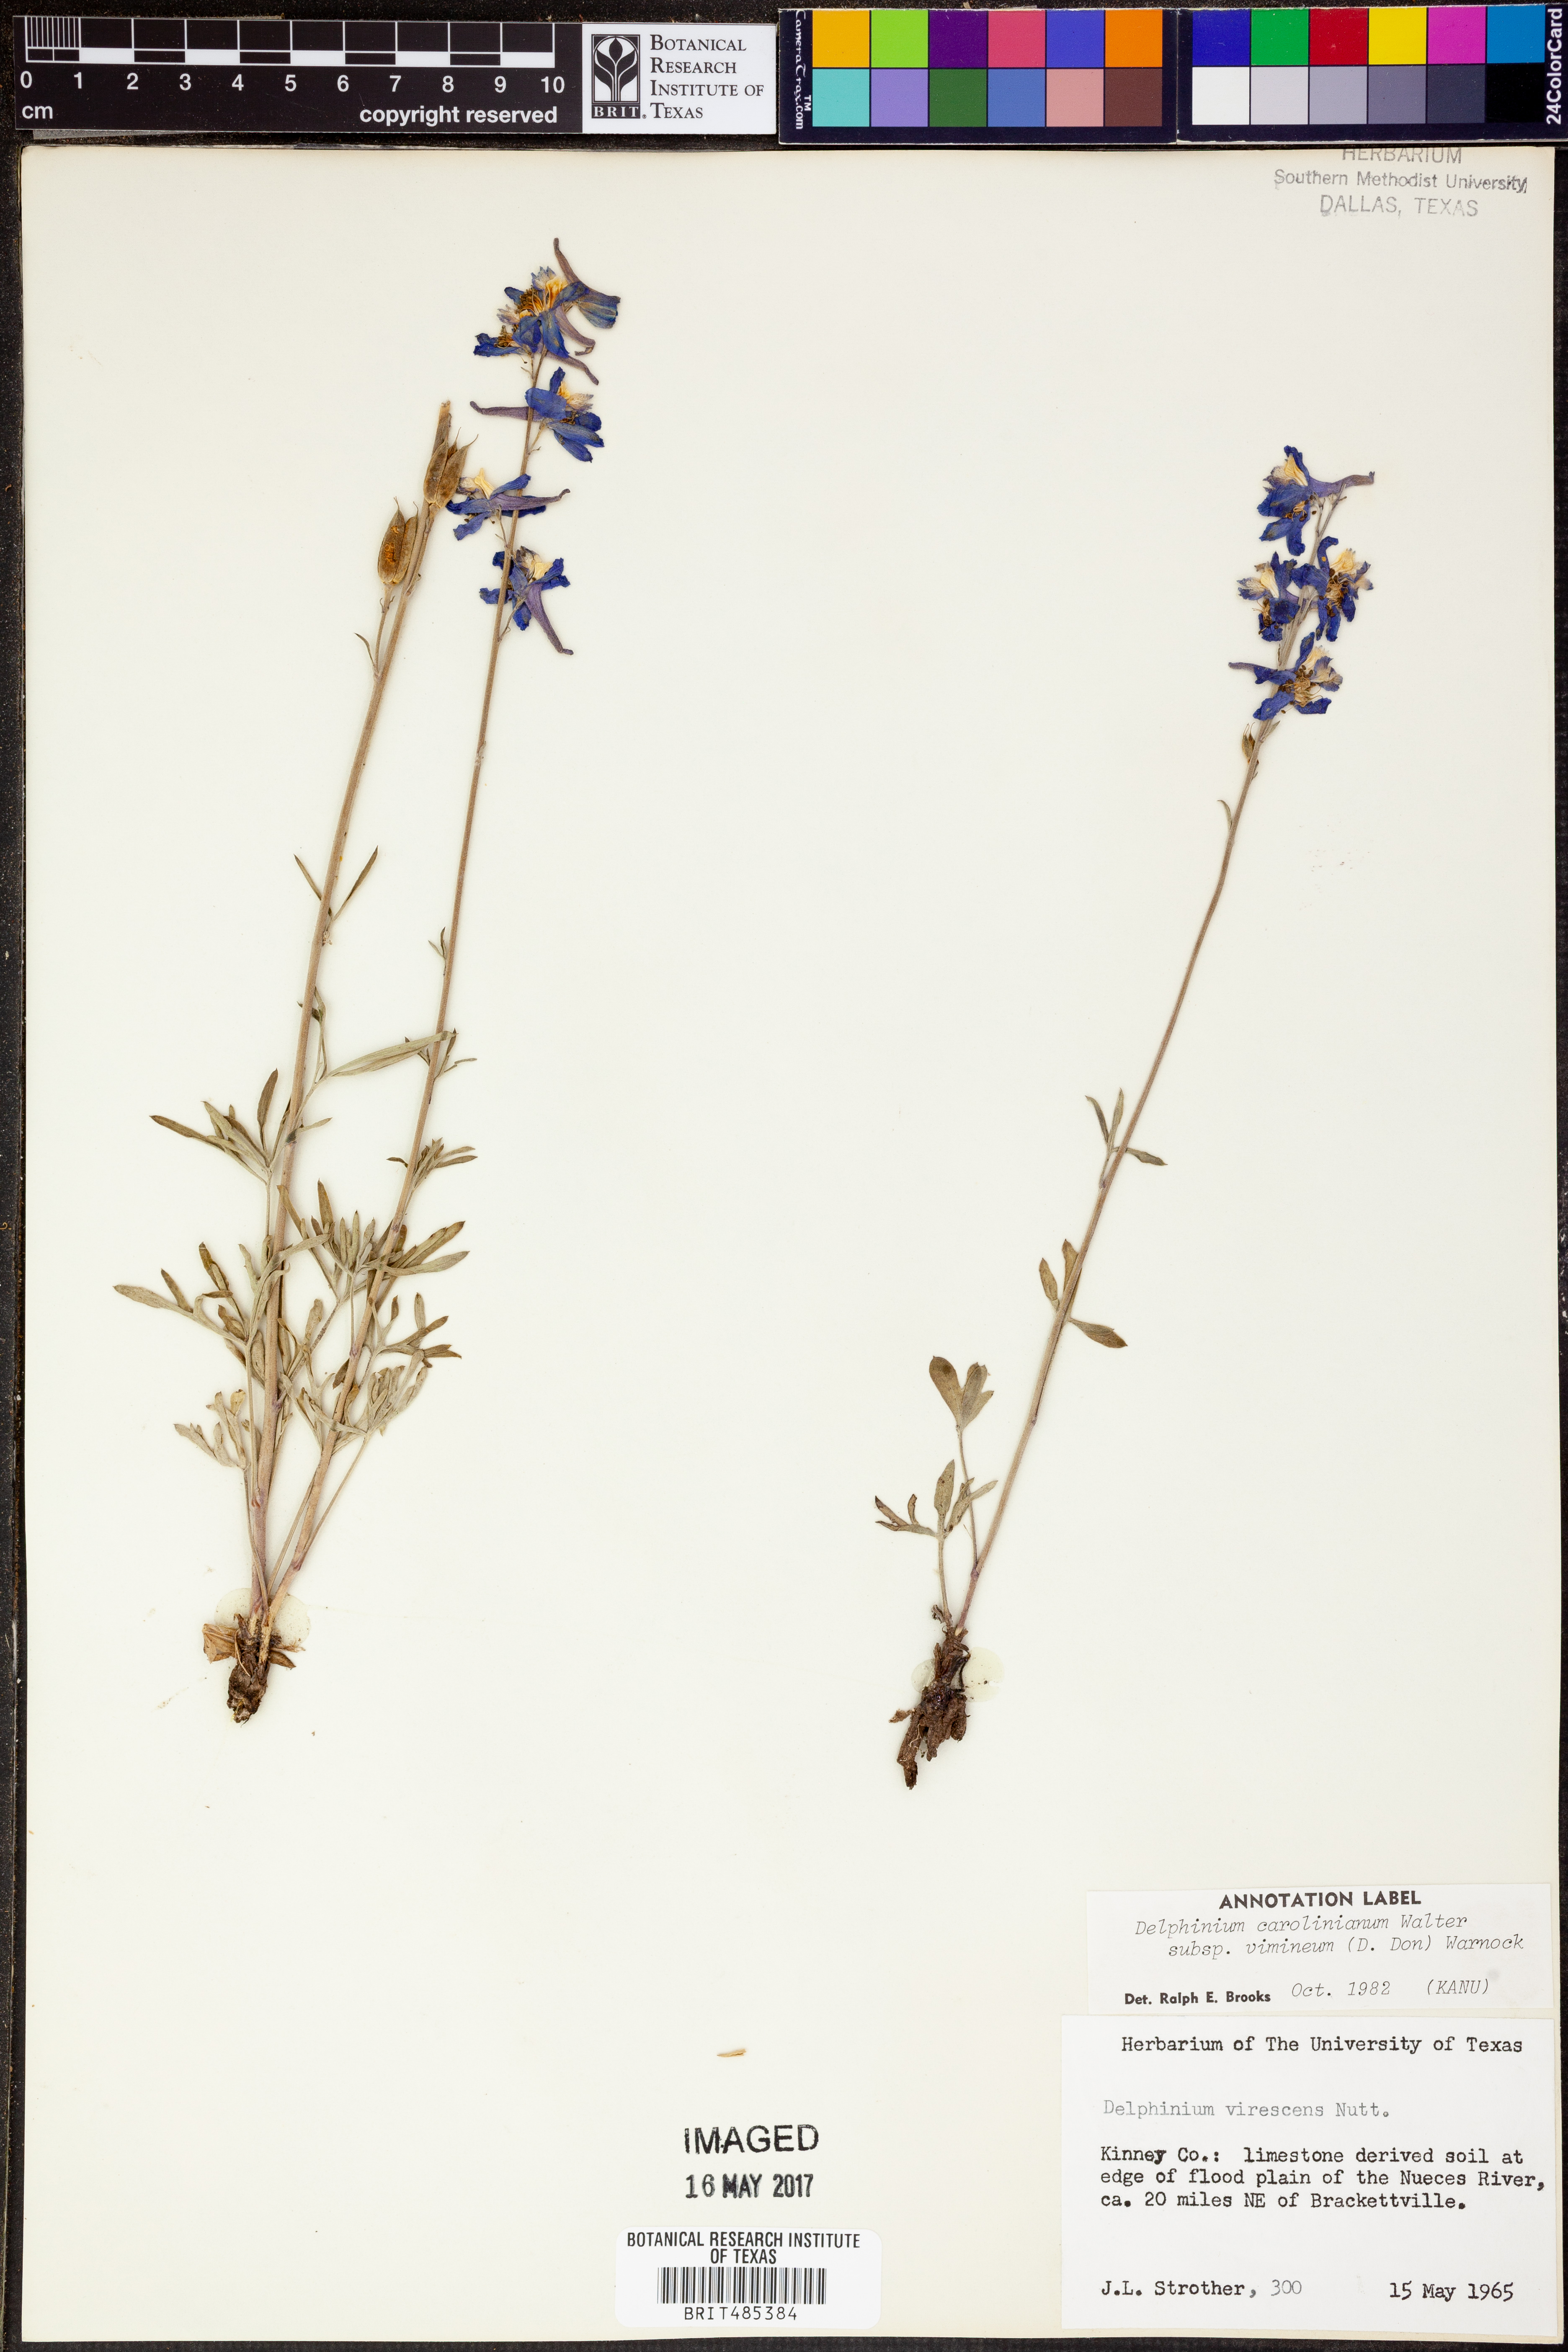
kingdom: Plantae
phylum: Tracheophyta
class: Magnoliopsida
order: Ranunculales
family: Ranunculaceae
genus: Delphinium
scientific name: Delphinium carolinianum
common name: Carolina larkspur
